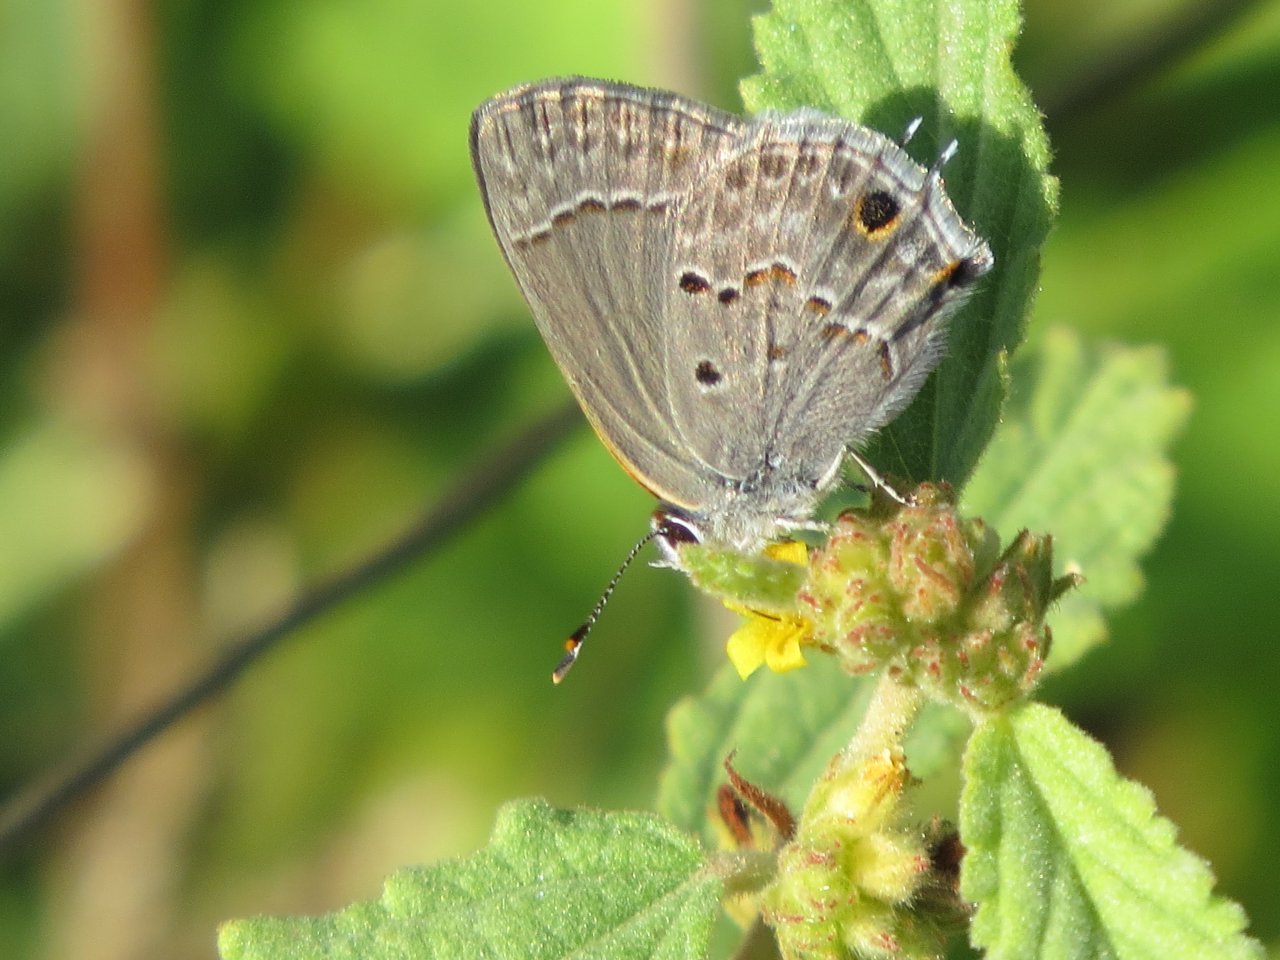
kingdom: Animalia
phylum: Arthropoda
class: Insecta
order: Lepidoptera
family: Lycaenidae
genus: Callicista
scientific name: Callicista columella
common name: Mallow Scrub-Hairstreak
